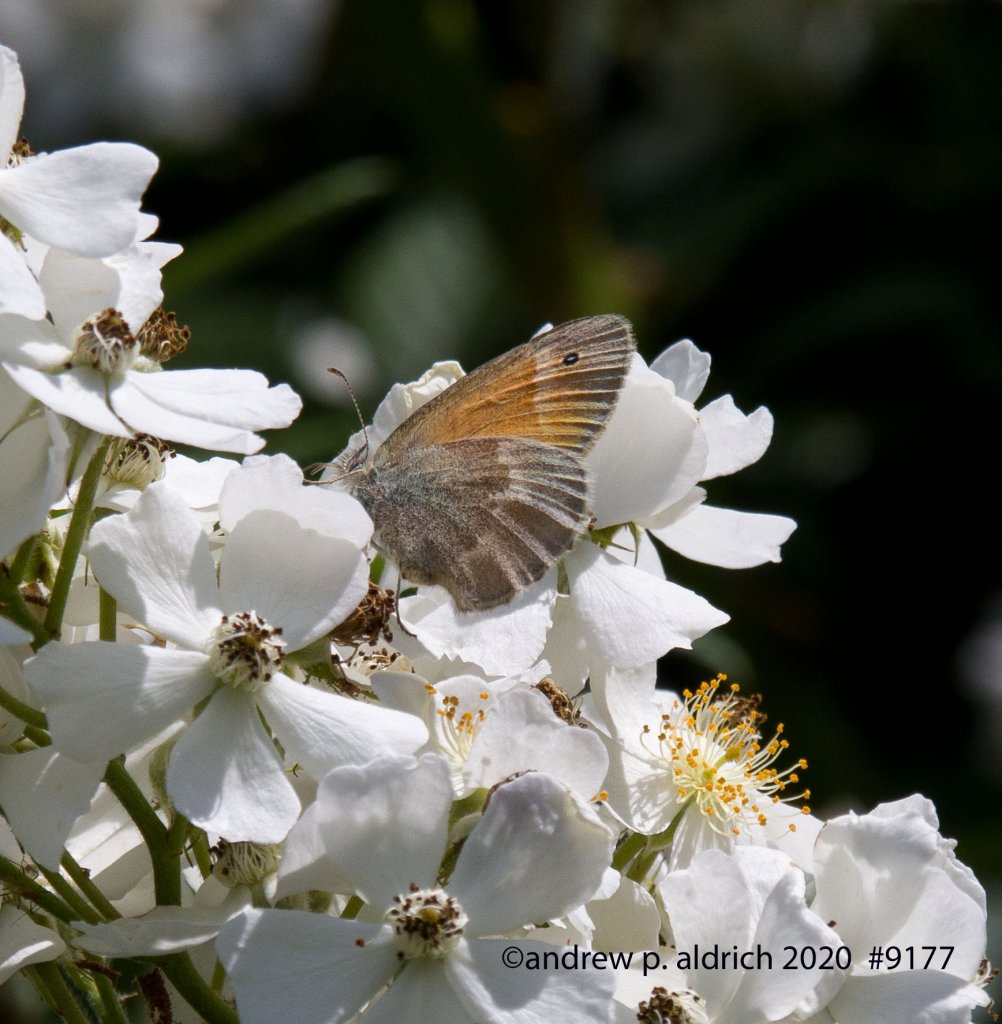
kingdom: Animalia
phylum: Arthropoda
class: Insecta
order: Lepidoptera
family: Nymphalidae
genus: Coenonympha
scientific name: Coenonympha tullia
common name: Large Heath
